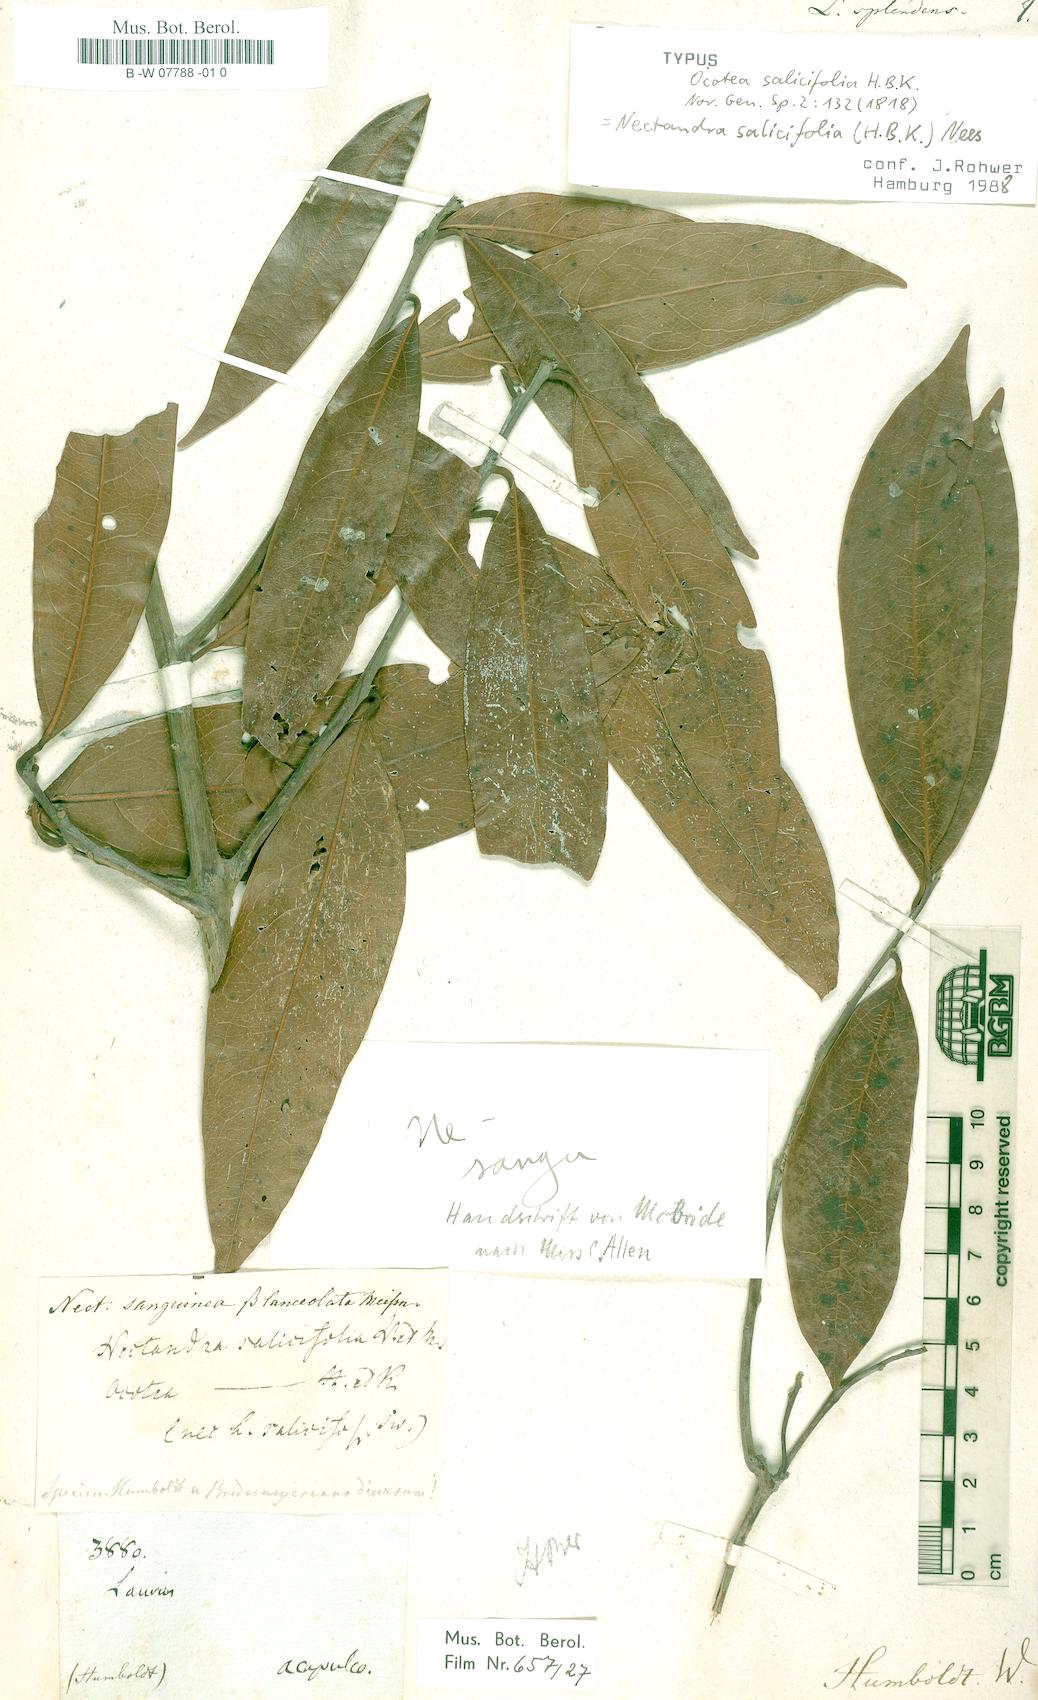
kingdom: Plantae
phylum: Tracheophyta
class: Magnoliopsida
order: Laurales
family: Lauraceae
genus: Damburneya
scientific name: Damburneya salicifolia
